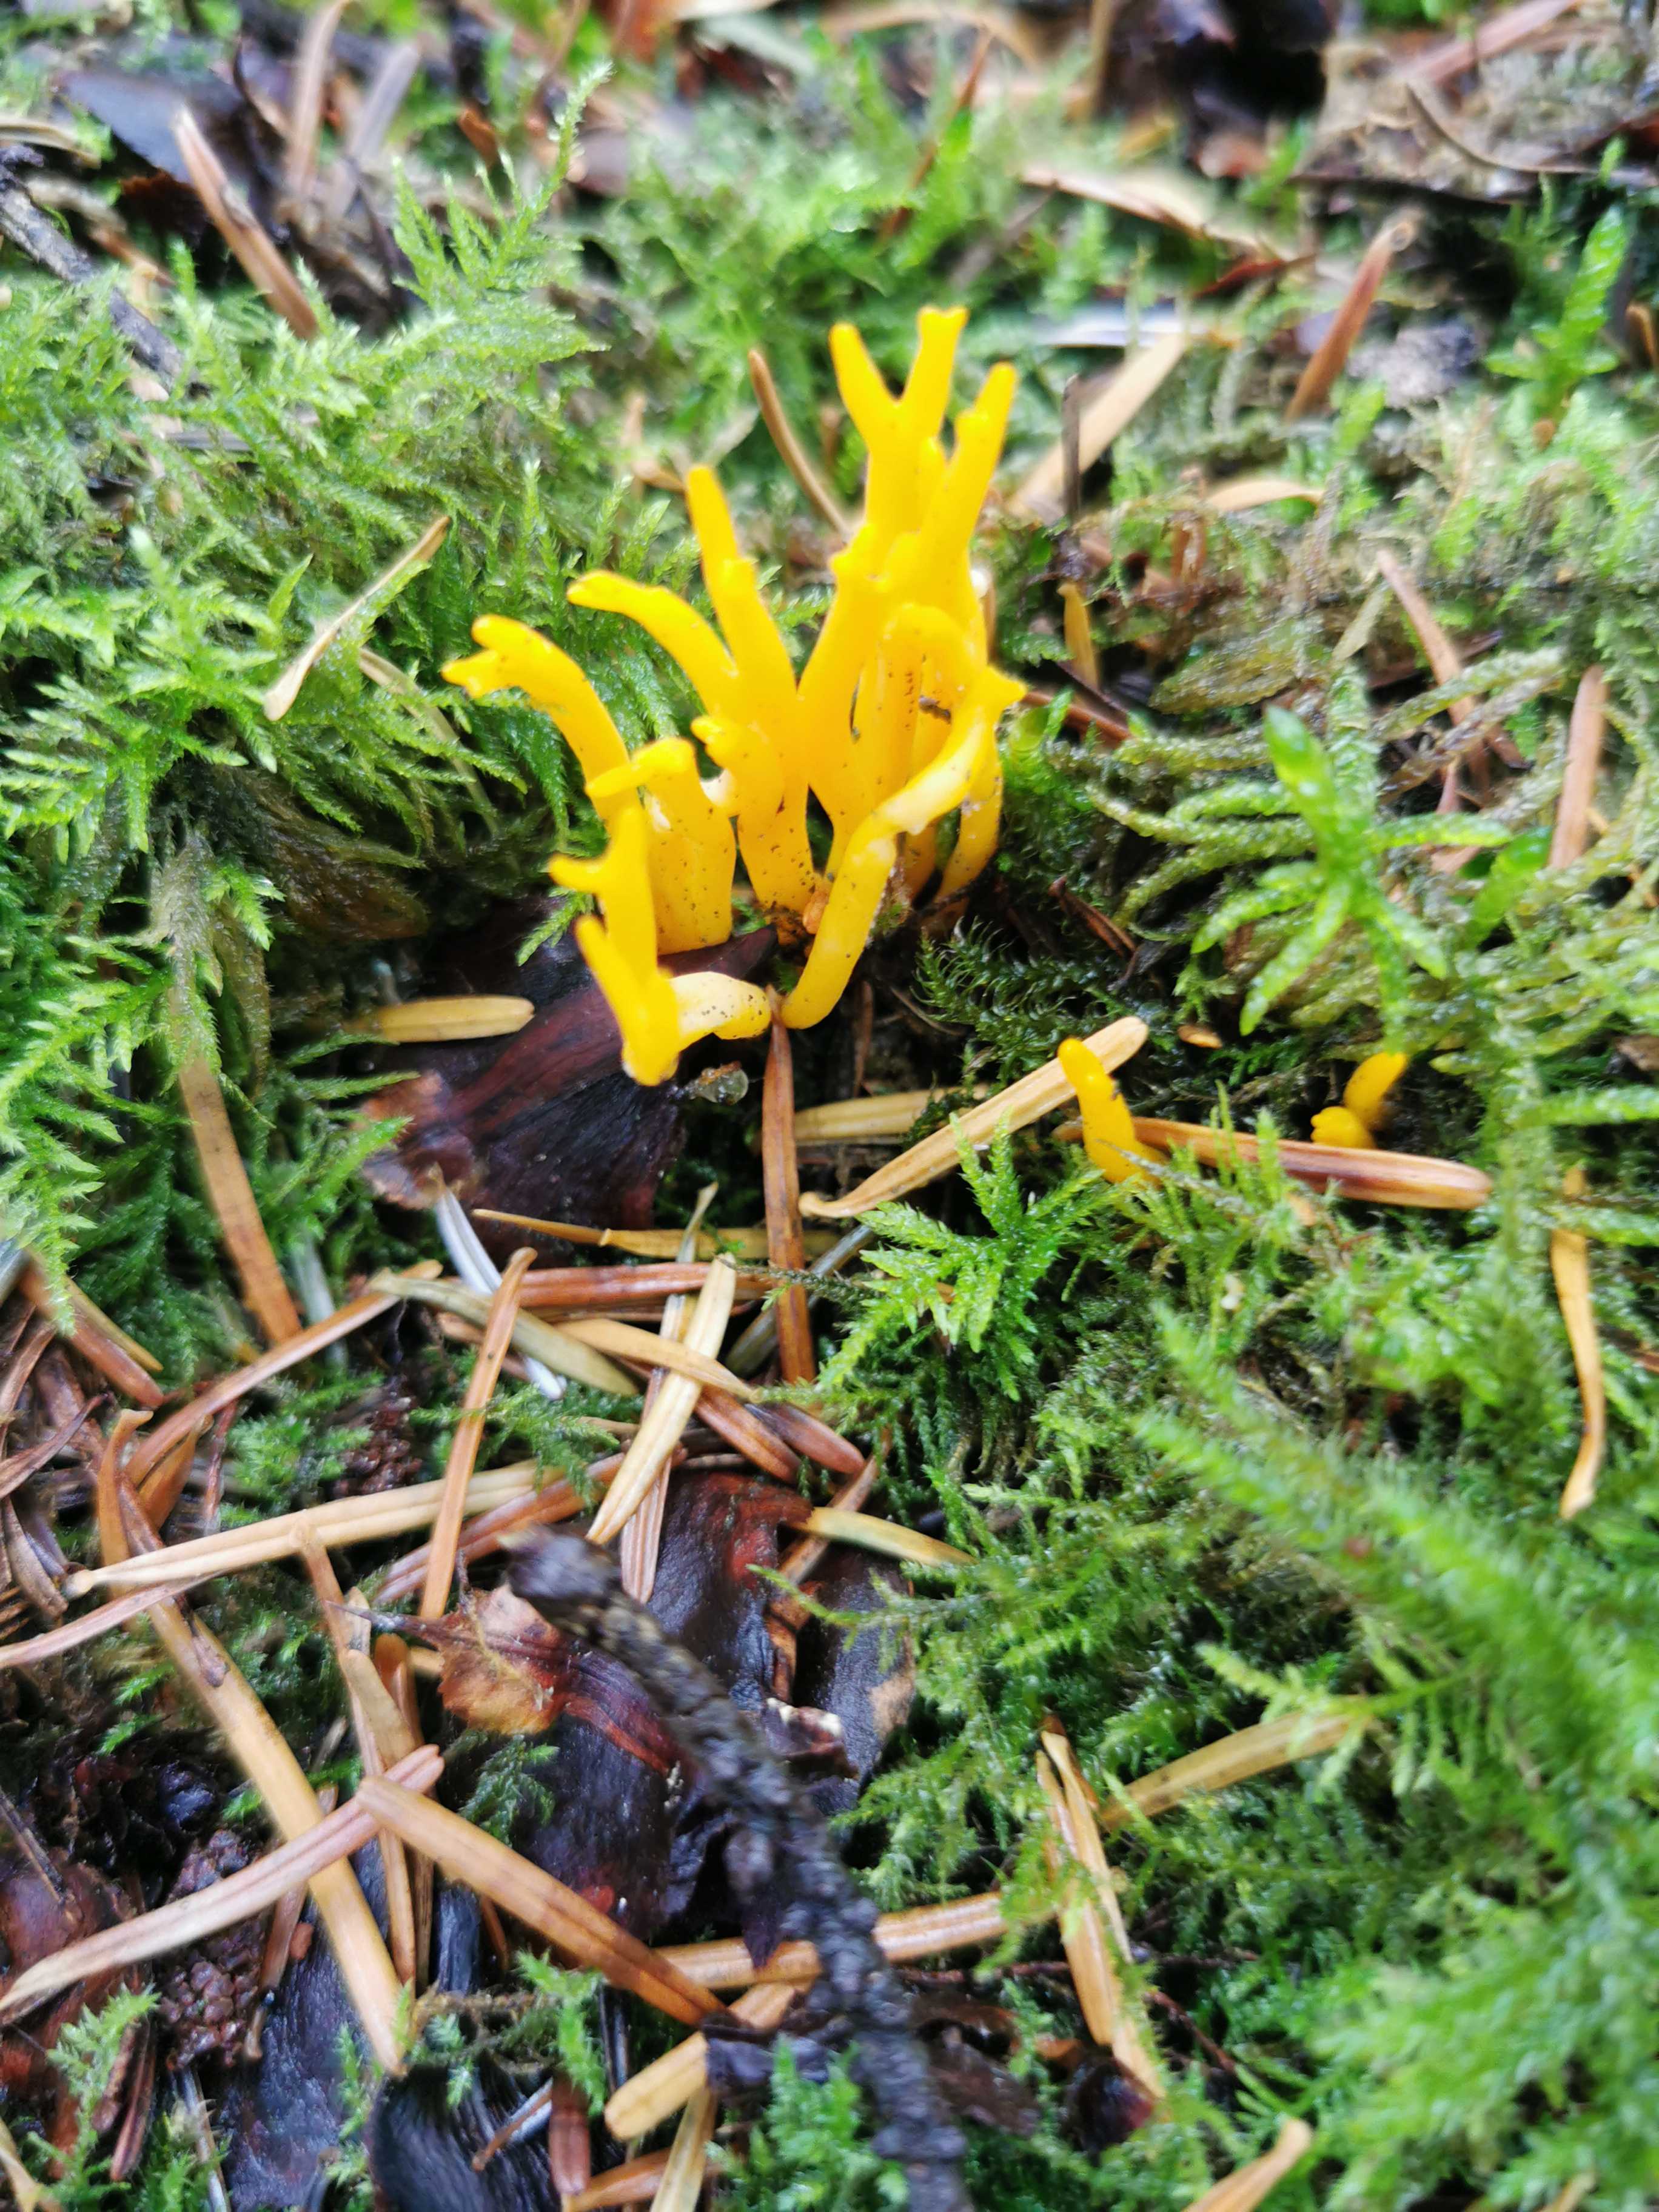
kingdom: Fungi
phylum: Basidiomycota
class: Dacrymycetes
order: Dacrymycetales
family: Dacrymycetaceae
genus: Calocera
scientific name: Calocera viscosa
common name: almindelig guldgaffel
